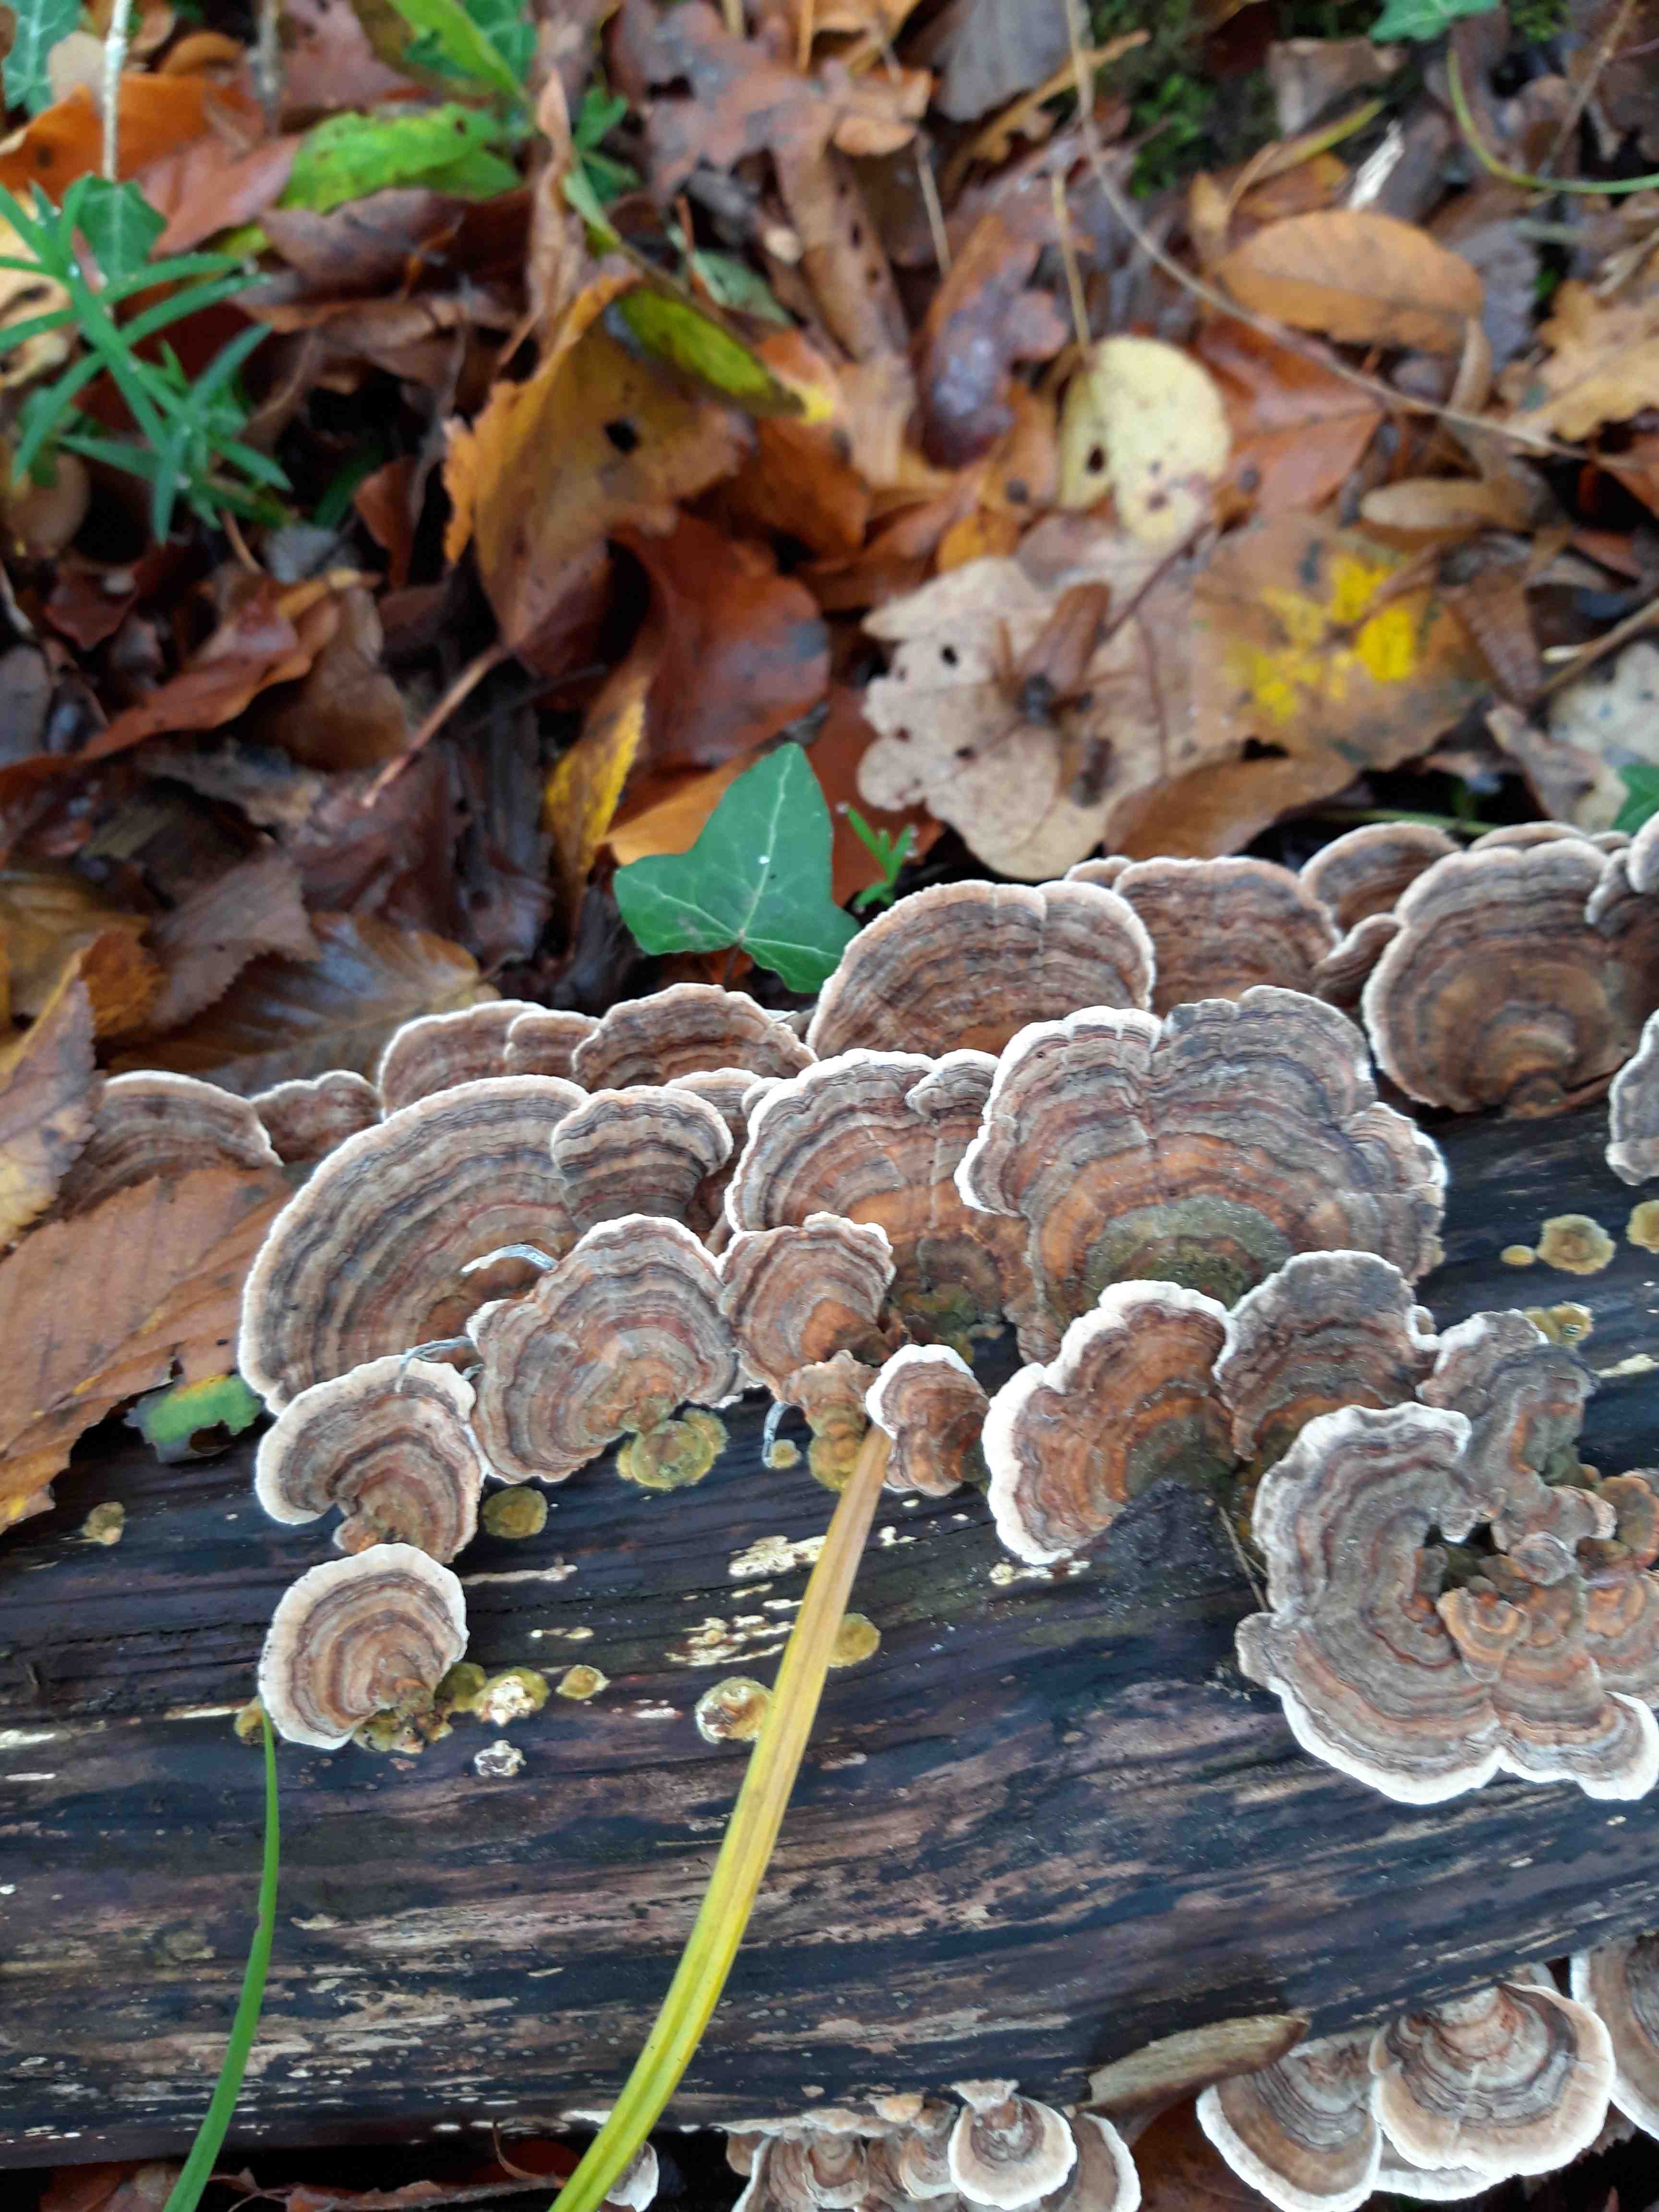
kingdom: Fungi
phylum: Basidiomycota
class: Agaricomycetes
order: Polyporales
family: Polyporaceae
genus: Trametes
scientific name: Trametes versicolor
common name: broget læderporesvamp
